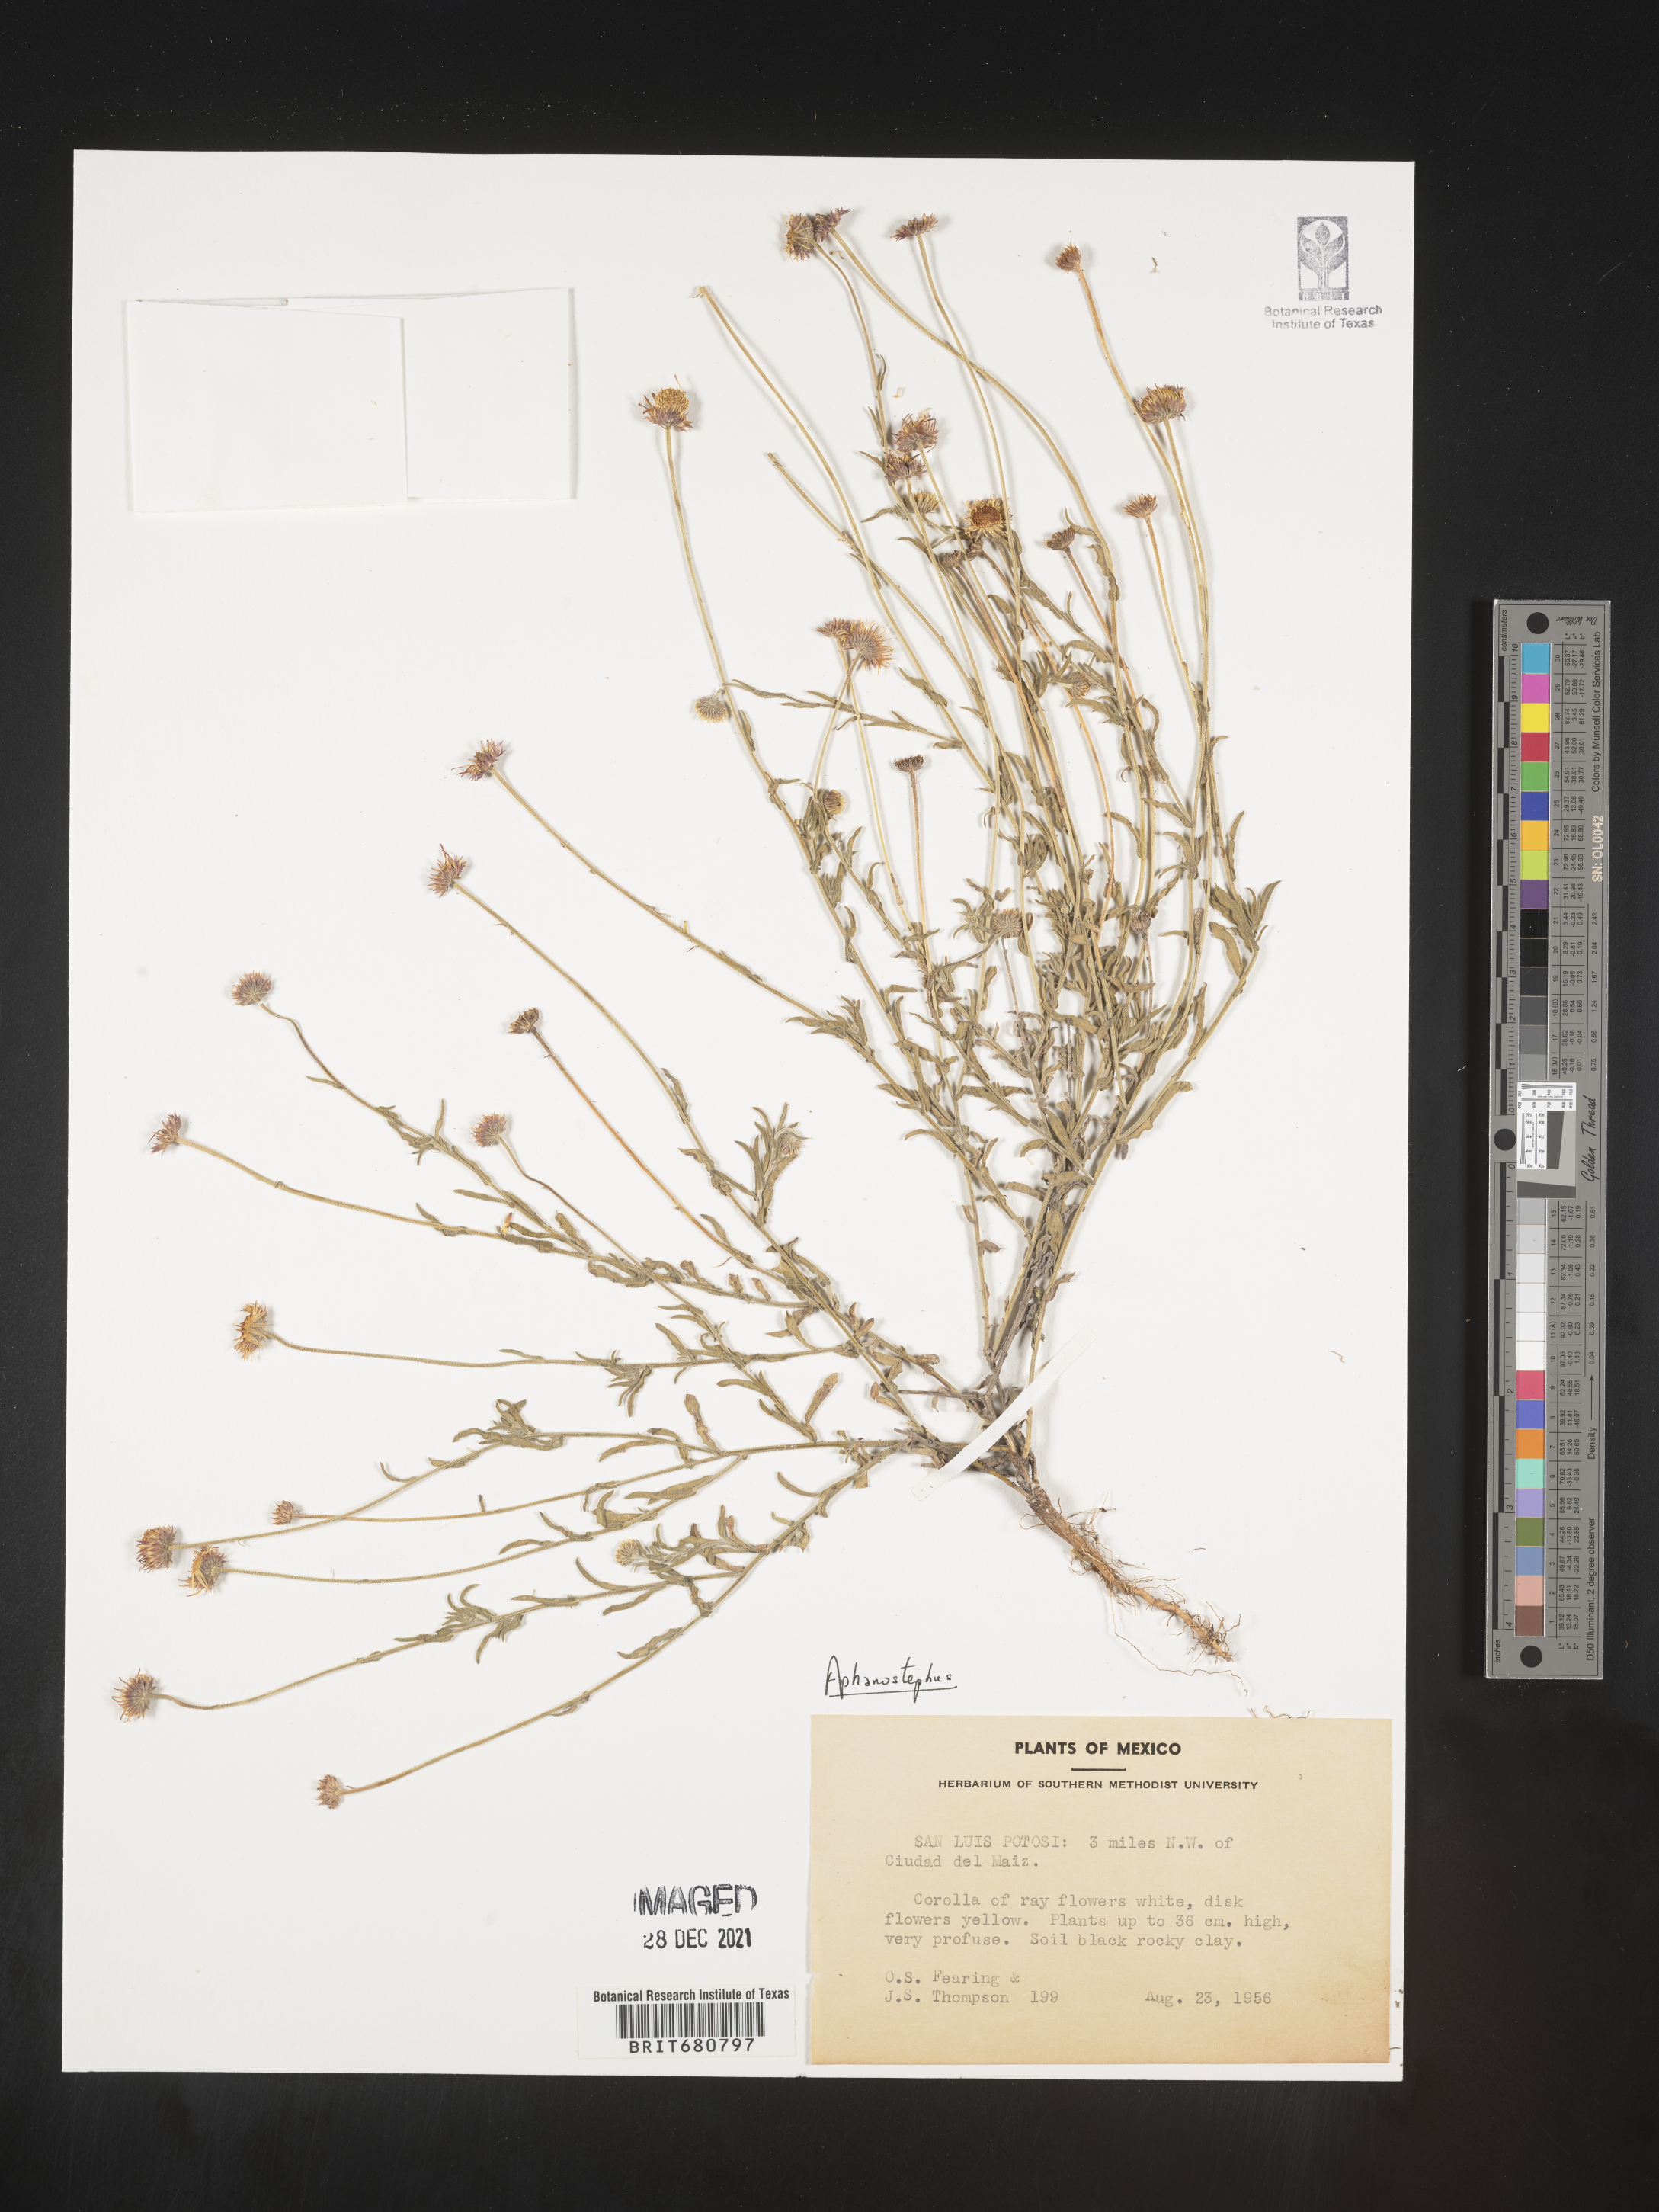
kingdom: Plantae
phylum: Tracheophyta
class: Magnoliopsida
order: Asterales
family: Asteraceae
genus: Aphanostephus
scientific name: Aphanostephus
